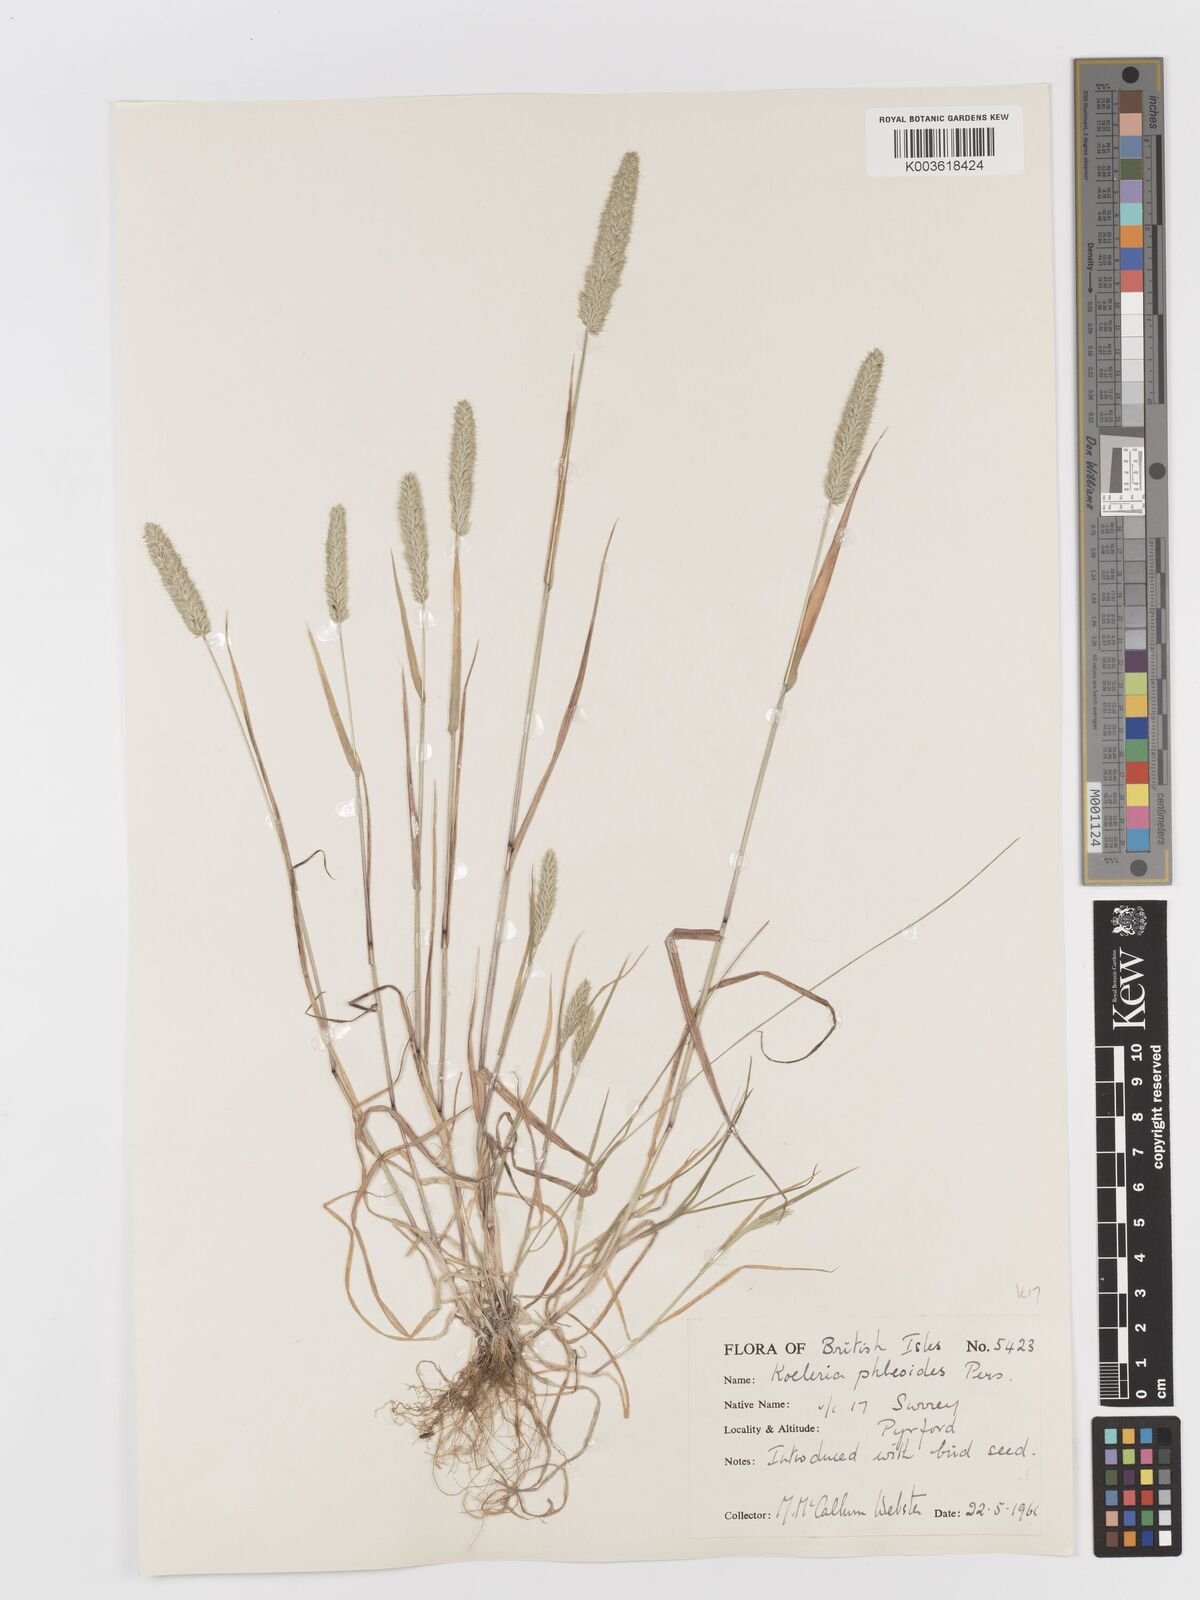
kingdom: Plantae
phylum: Tracheophyta
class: Liliopsida
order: Poales
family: Poaceae
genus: Rostraria
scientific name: Rostraria cristata
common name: Mediterranean hair-grass
